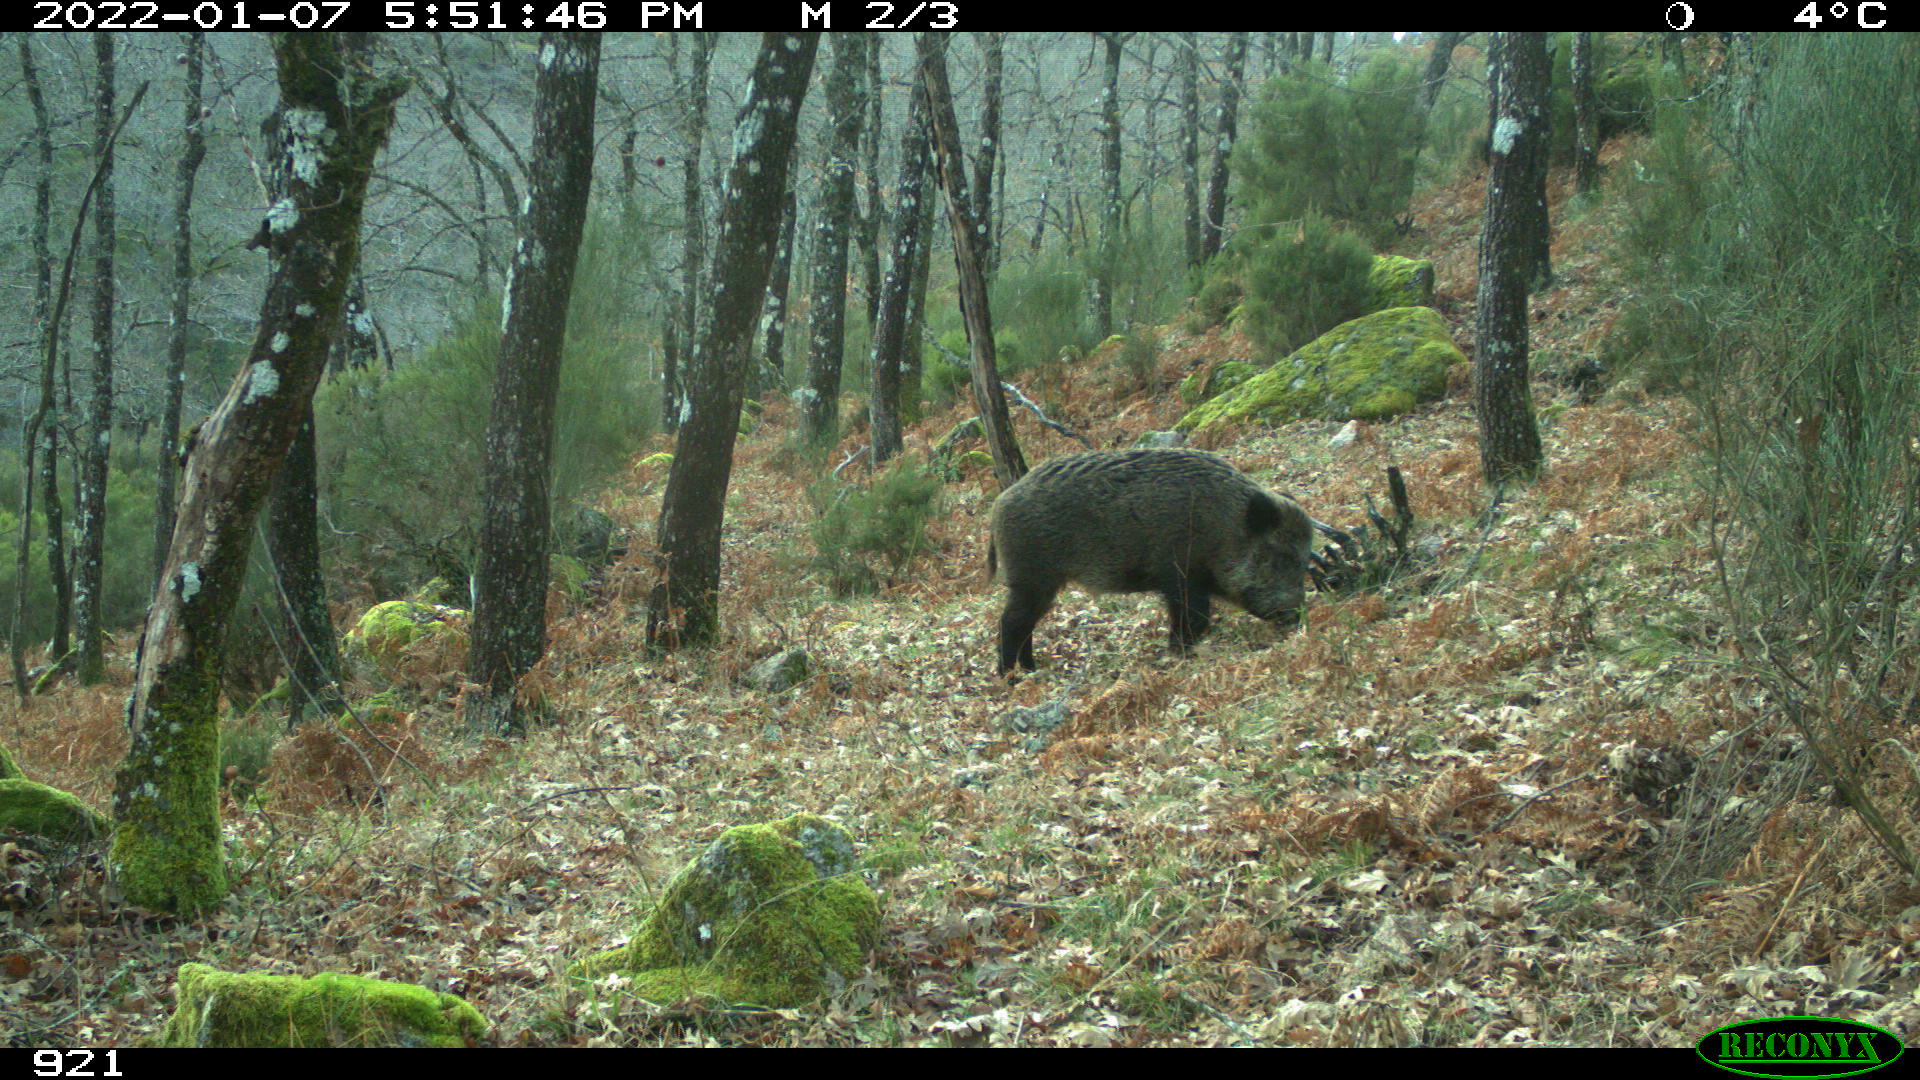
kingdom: Animalia
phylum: Chordata
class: Mammalia
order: Artiodactyla
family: Suidae
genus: Sus
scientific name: Sus scrofa
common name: Wild boar
